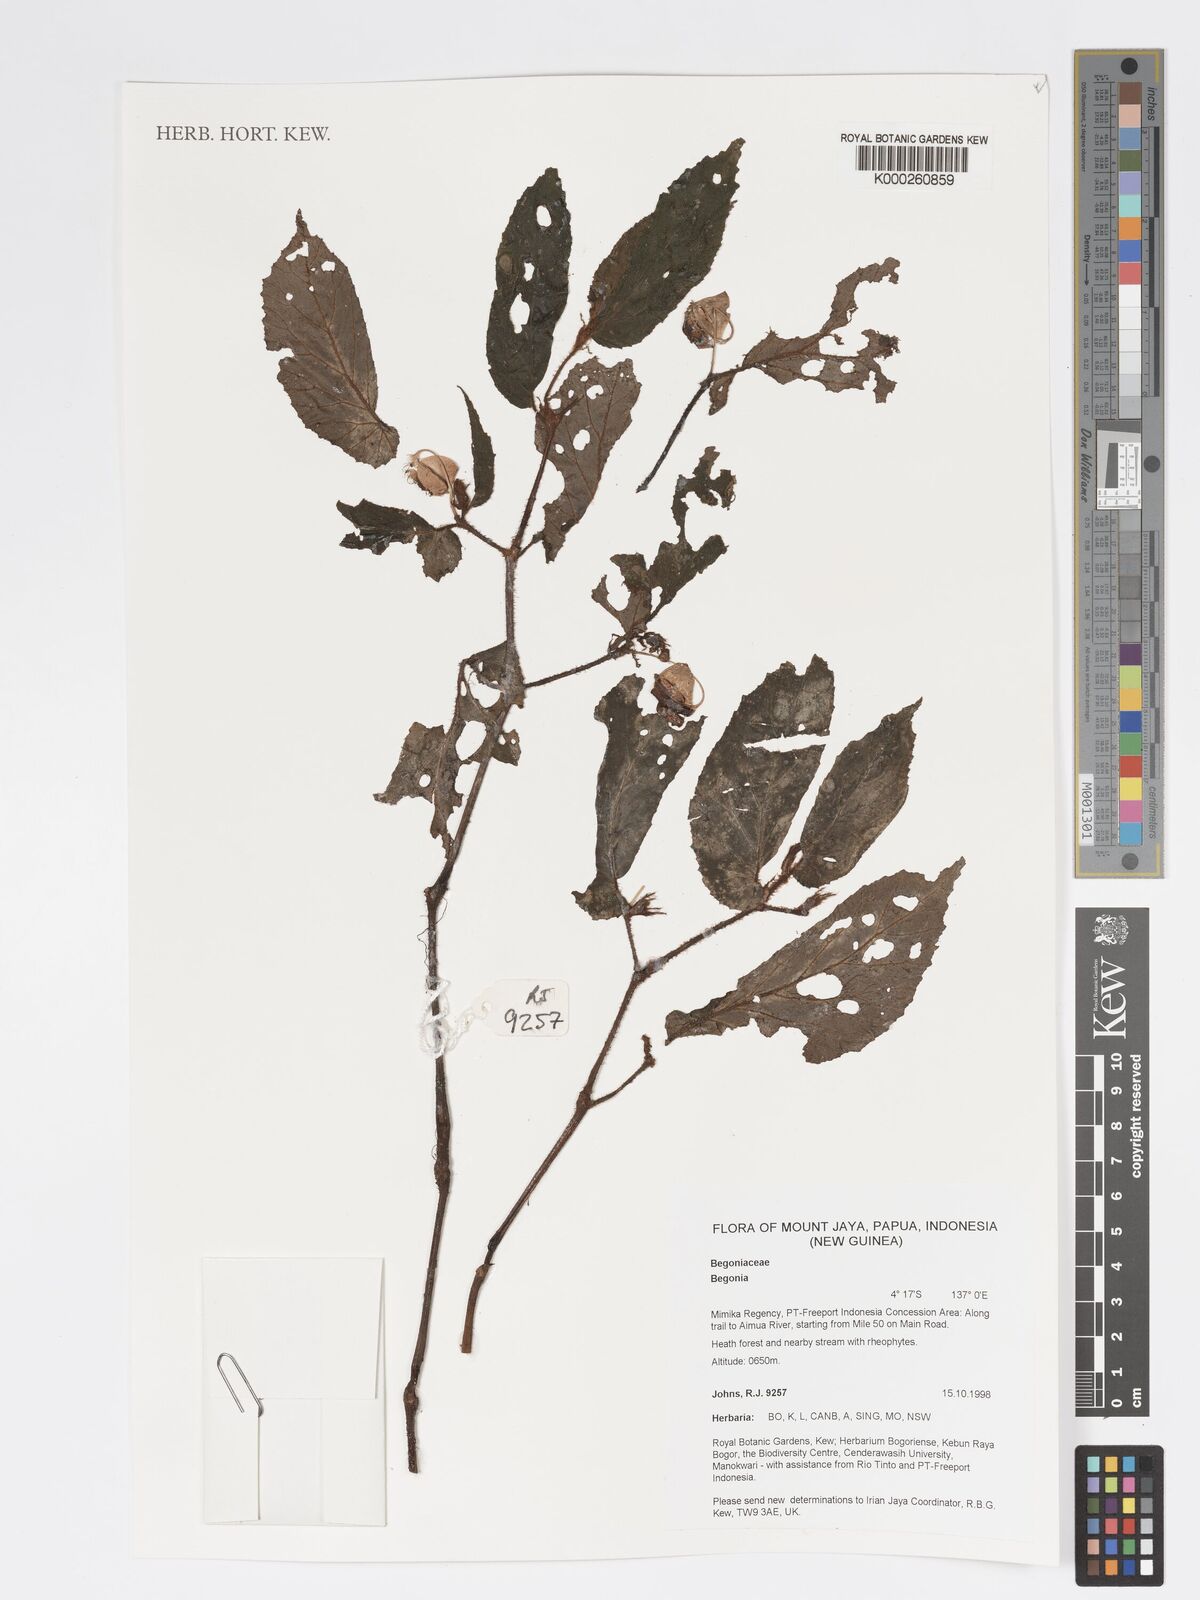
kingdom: Plantae
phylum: Tracheophyta
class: Magnoliopsida
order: Cucurbitales
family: Begoniaceae
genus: Begonia
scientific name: Begonia
